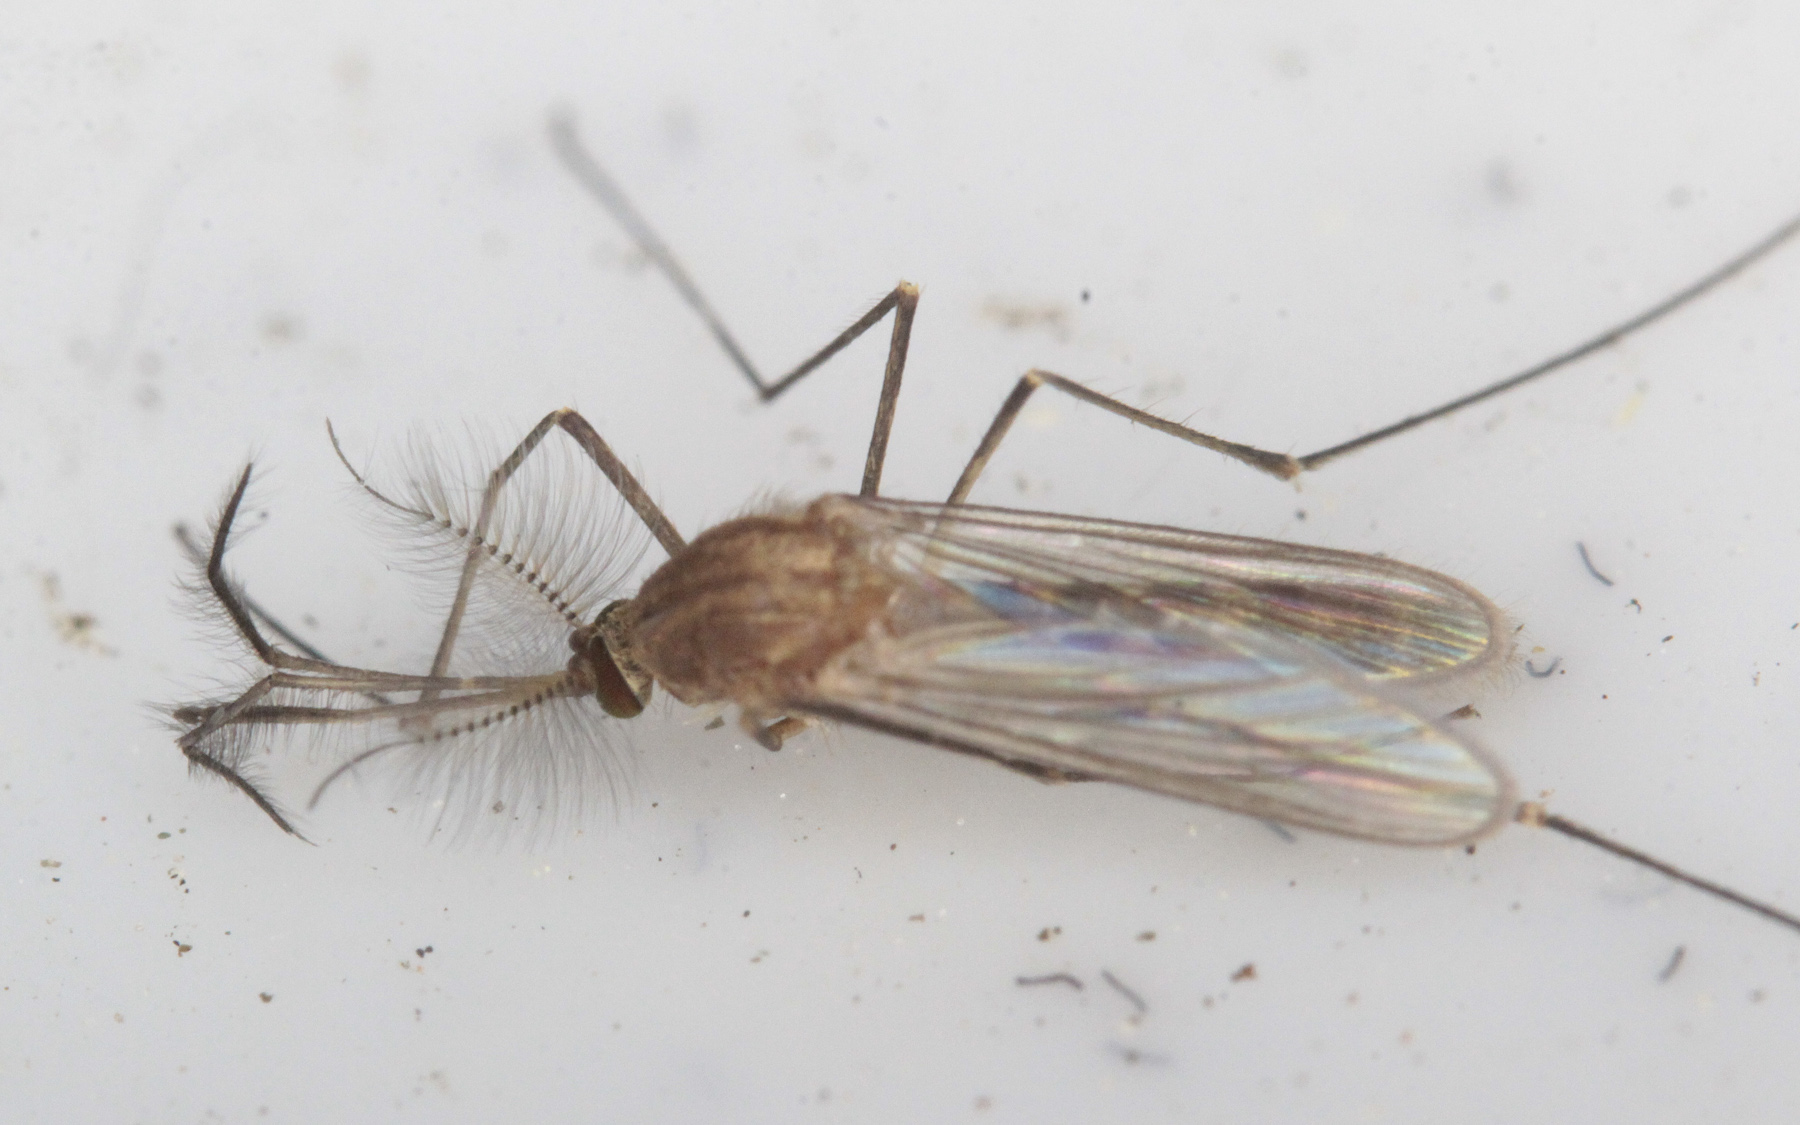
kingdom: Animalia
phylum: Arthropoda
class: Insecta
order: Diptera
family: Culicidae
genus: Anopheles
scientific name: Anopheles beklemishevi
